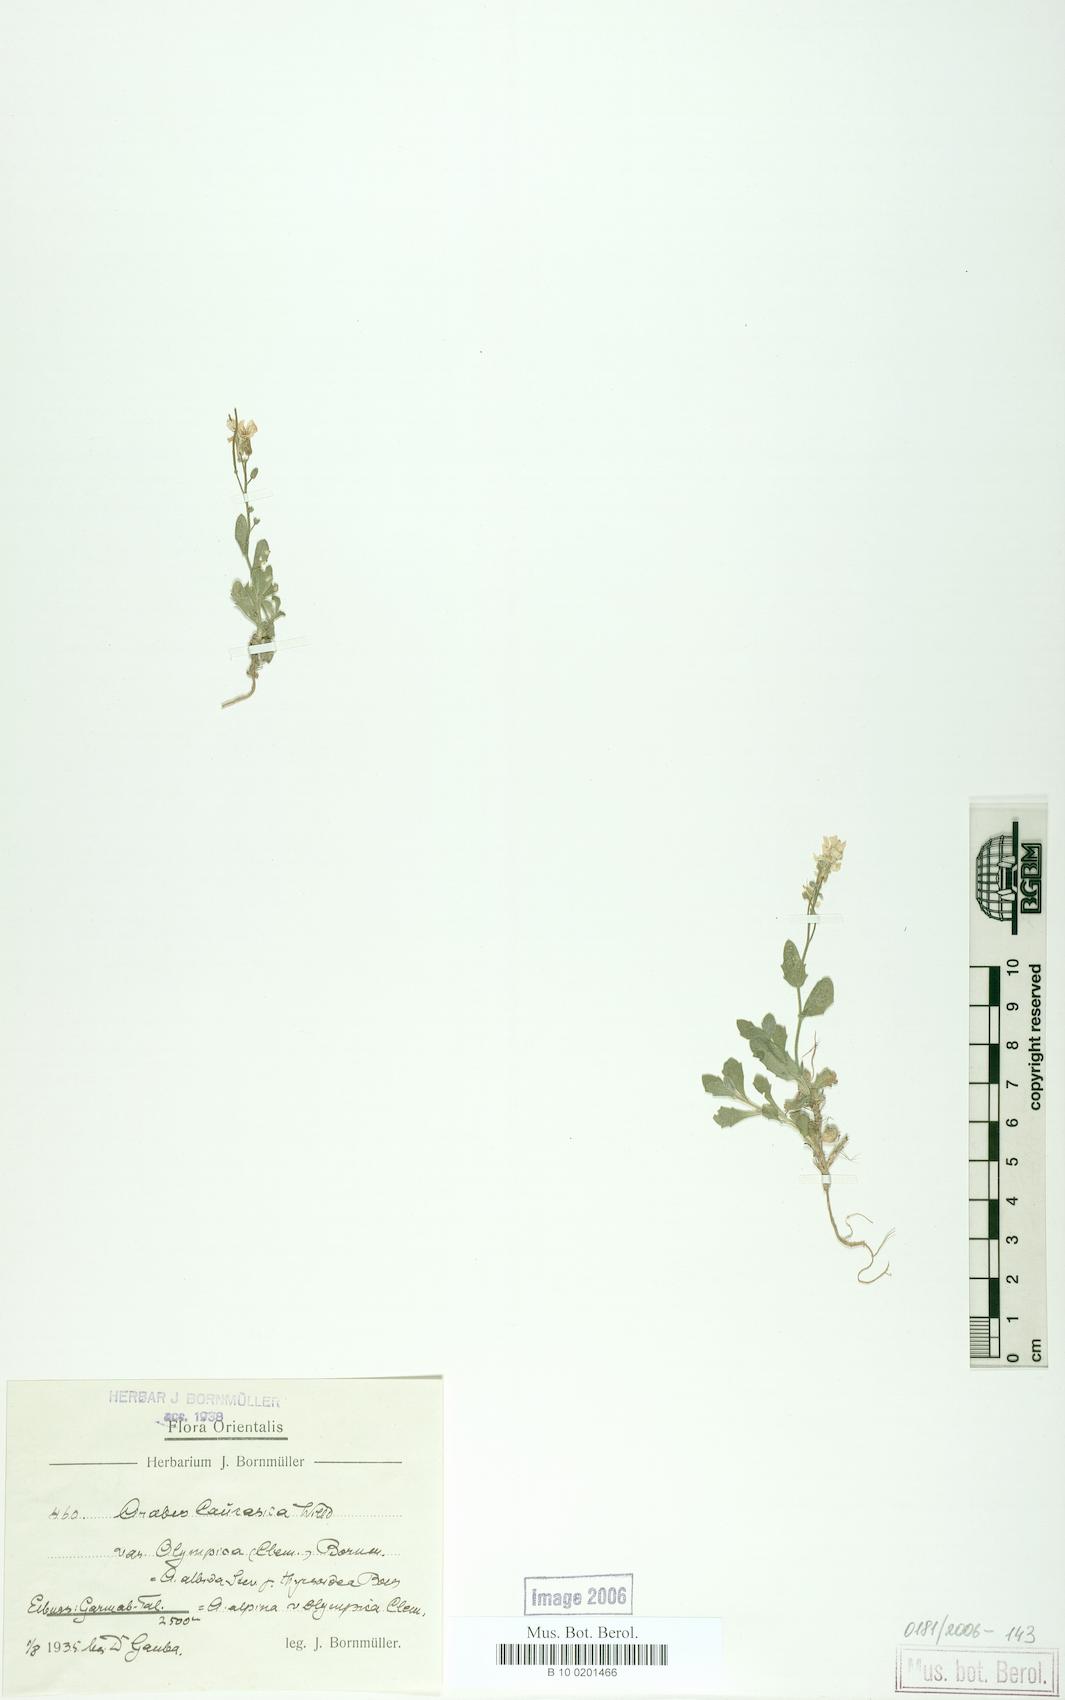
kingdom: Plantae
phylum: Tracheophyta
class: Magnoliopsida
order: Brassicales
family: Brassicaceae
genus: Arabis
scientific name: Arabis caucasica
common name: Gray rockcress
